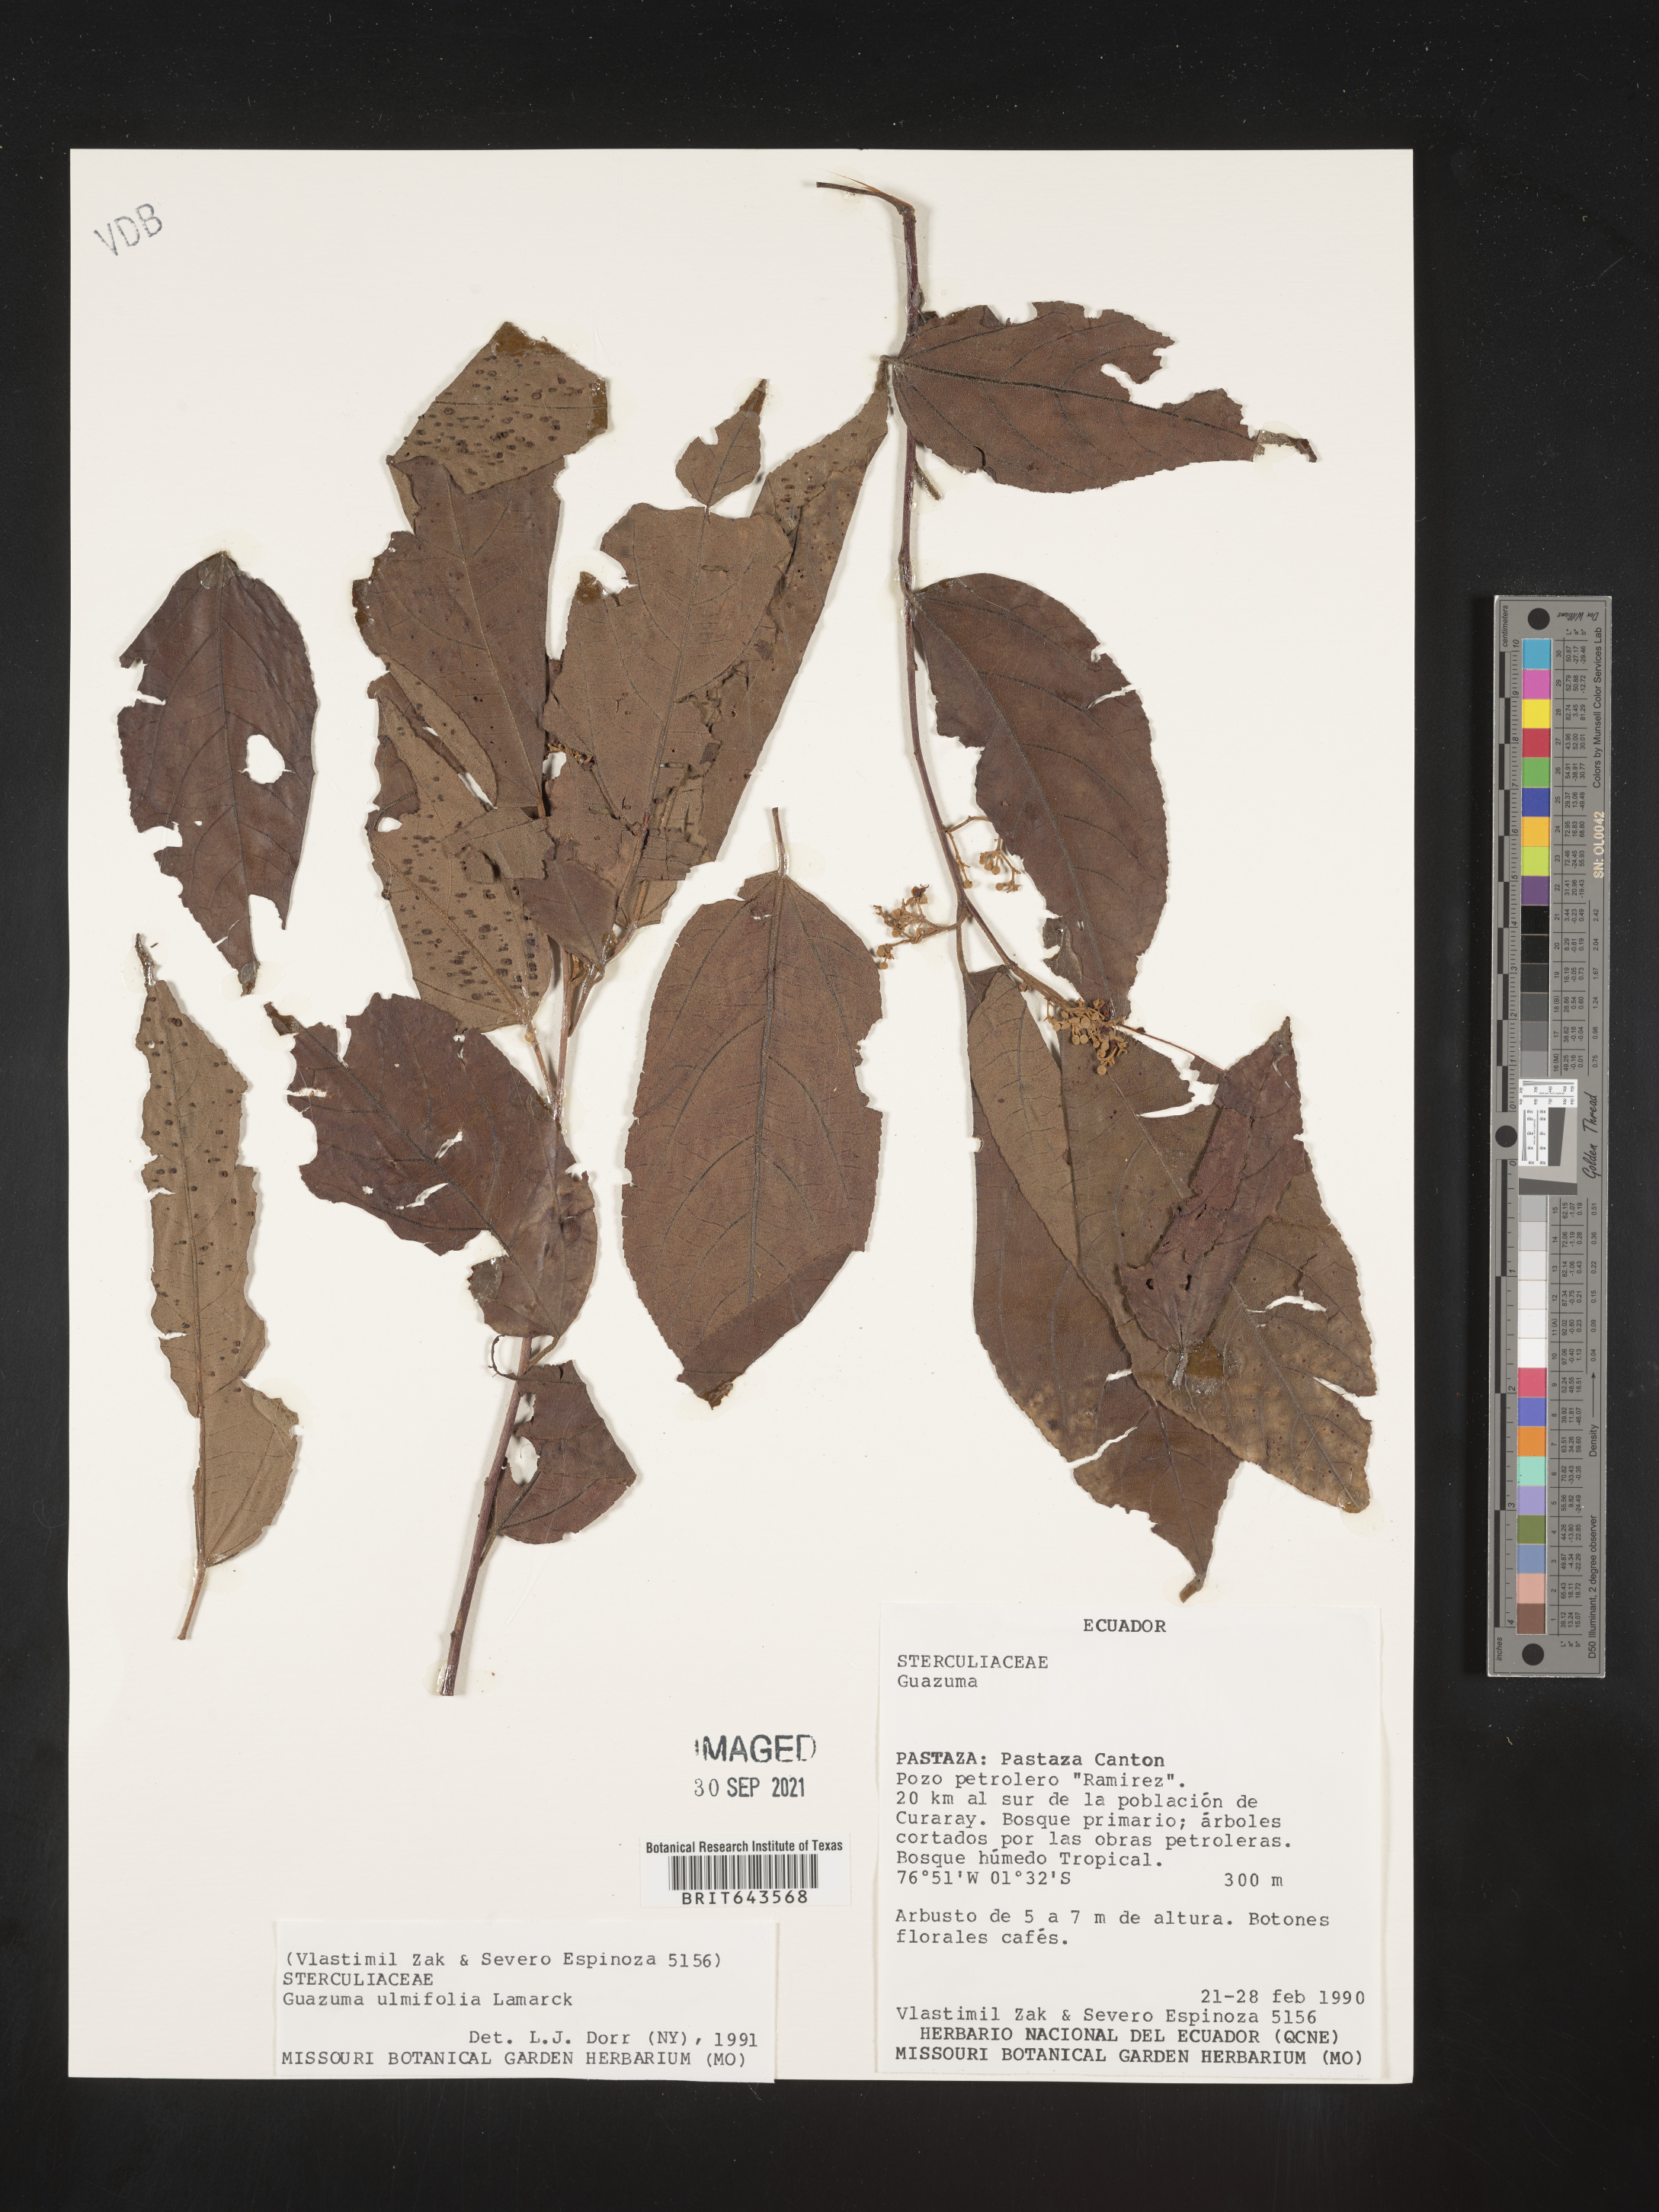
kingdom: Plantae
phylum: Tracheophyta
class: Magnoliopsida
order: Malvales
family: Malvaceae
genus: Guazuma
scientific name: Guazuma
